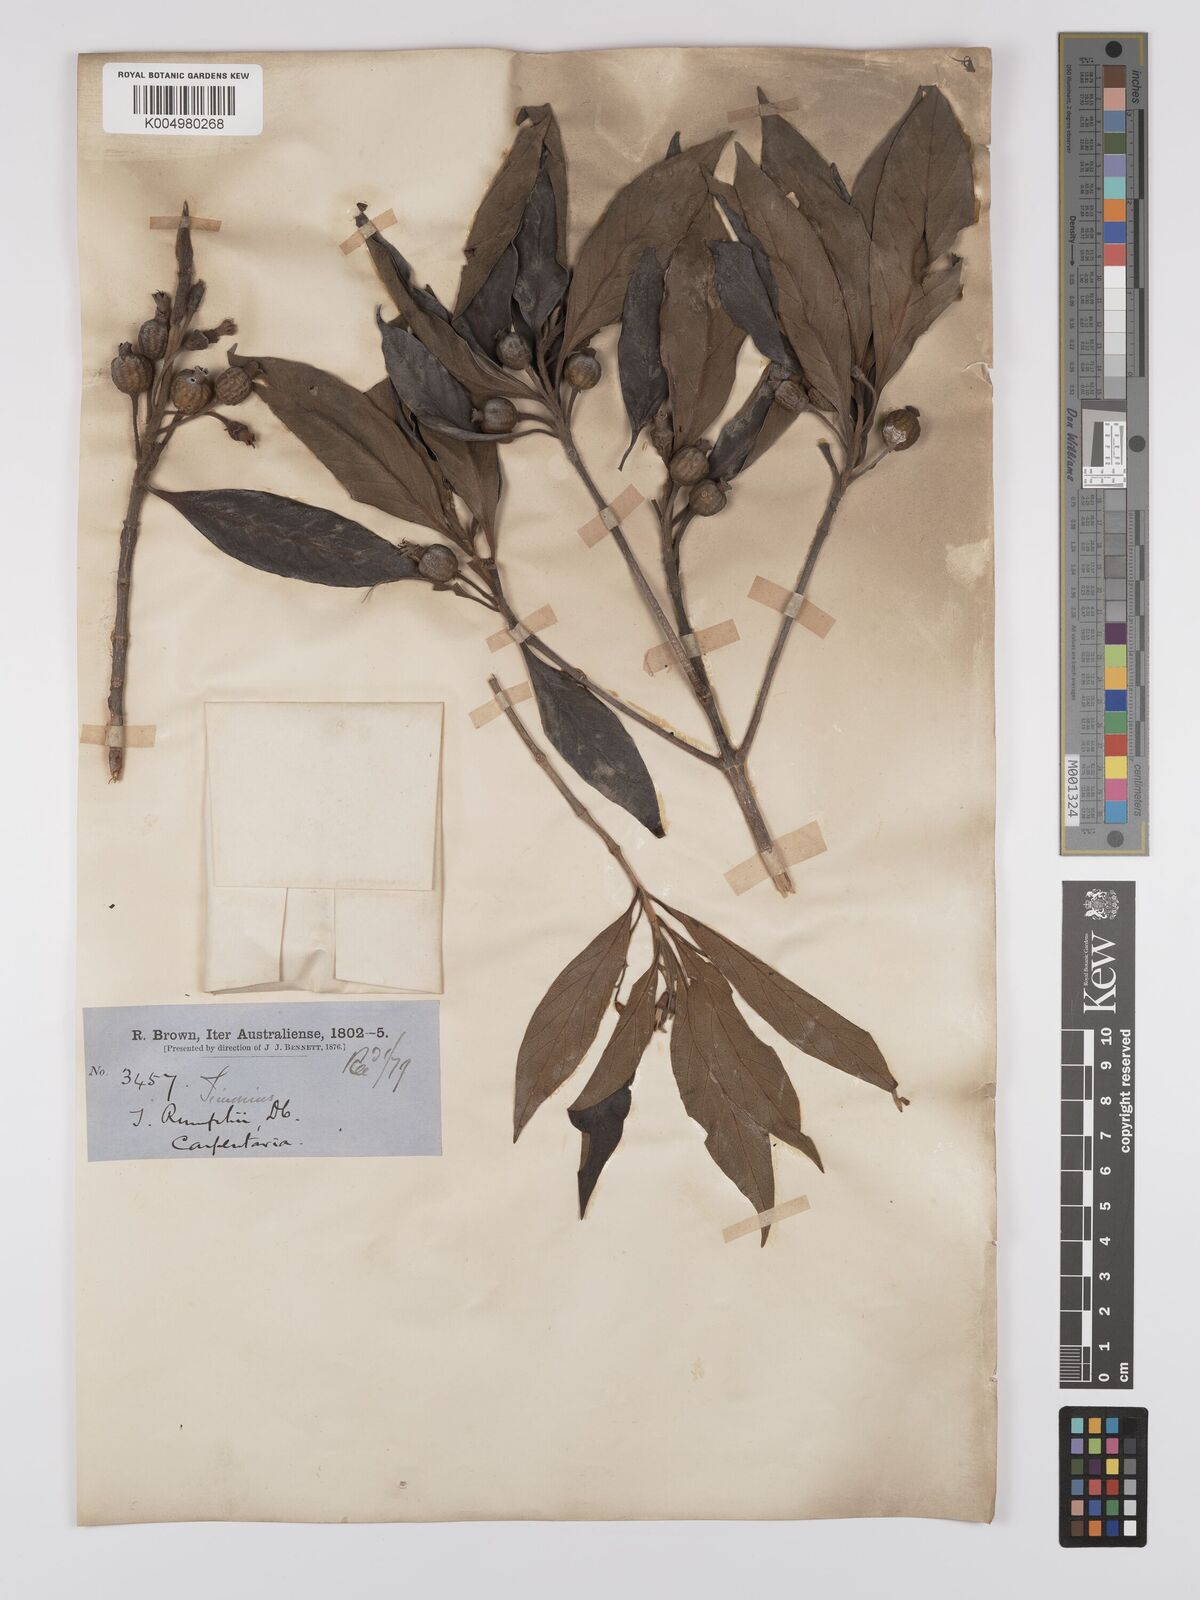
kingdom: Plantae
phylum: Tracheophyta
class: Magnoliopsida
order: Gentianales
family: Rubiaceae
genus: Timonius
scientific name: Timonius timon
